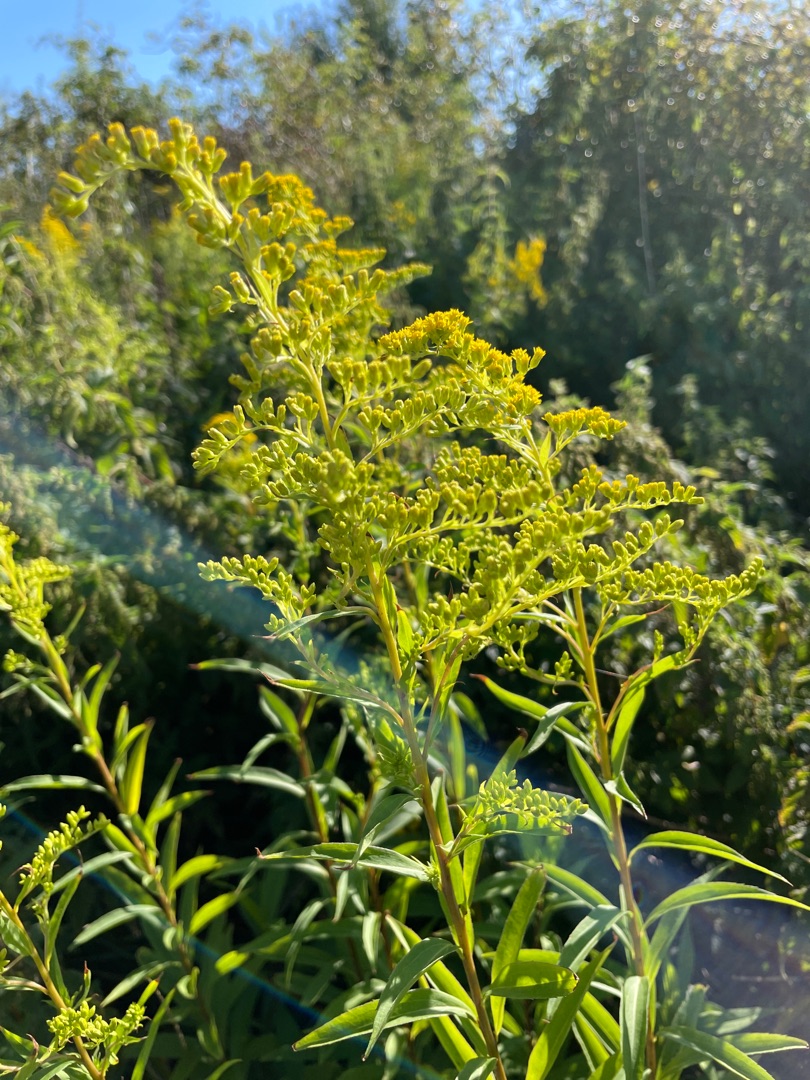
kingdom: Plantae
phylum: Tracheophyta
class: Magnoliopsida
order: Asterales
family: Asteraceae
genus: Solidago
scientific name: Solidago gigantea
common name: Sildig gyldenris
